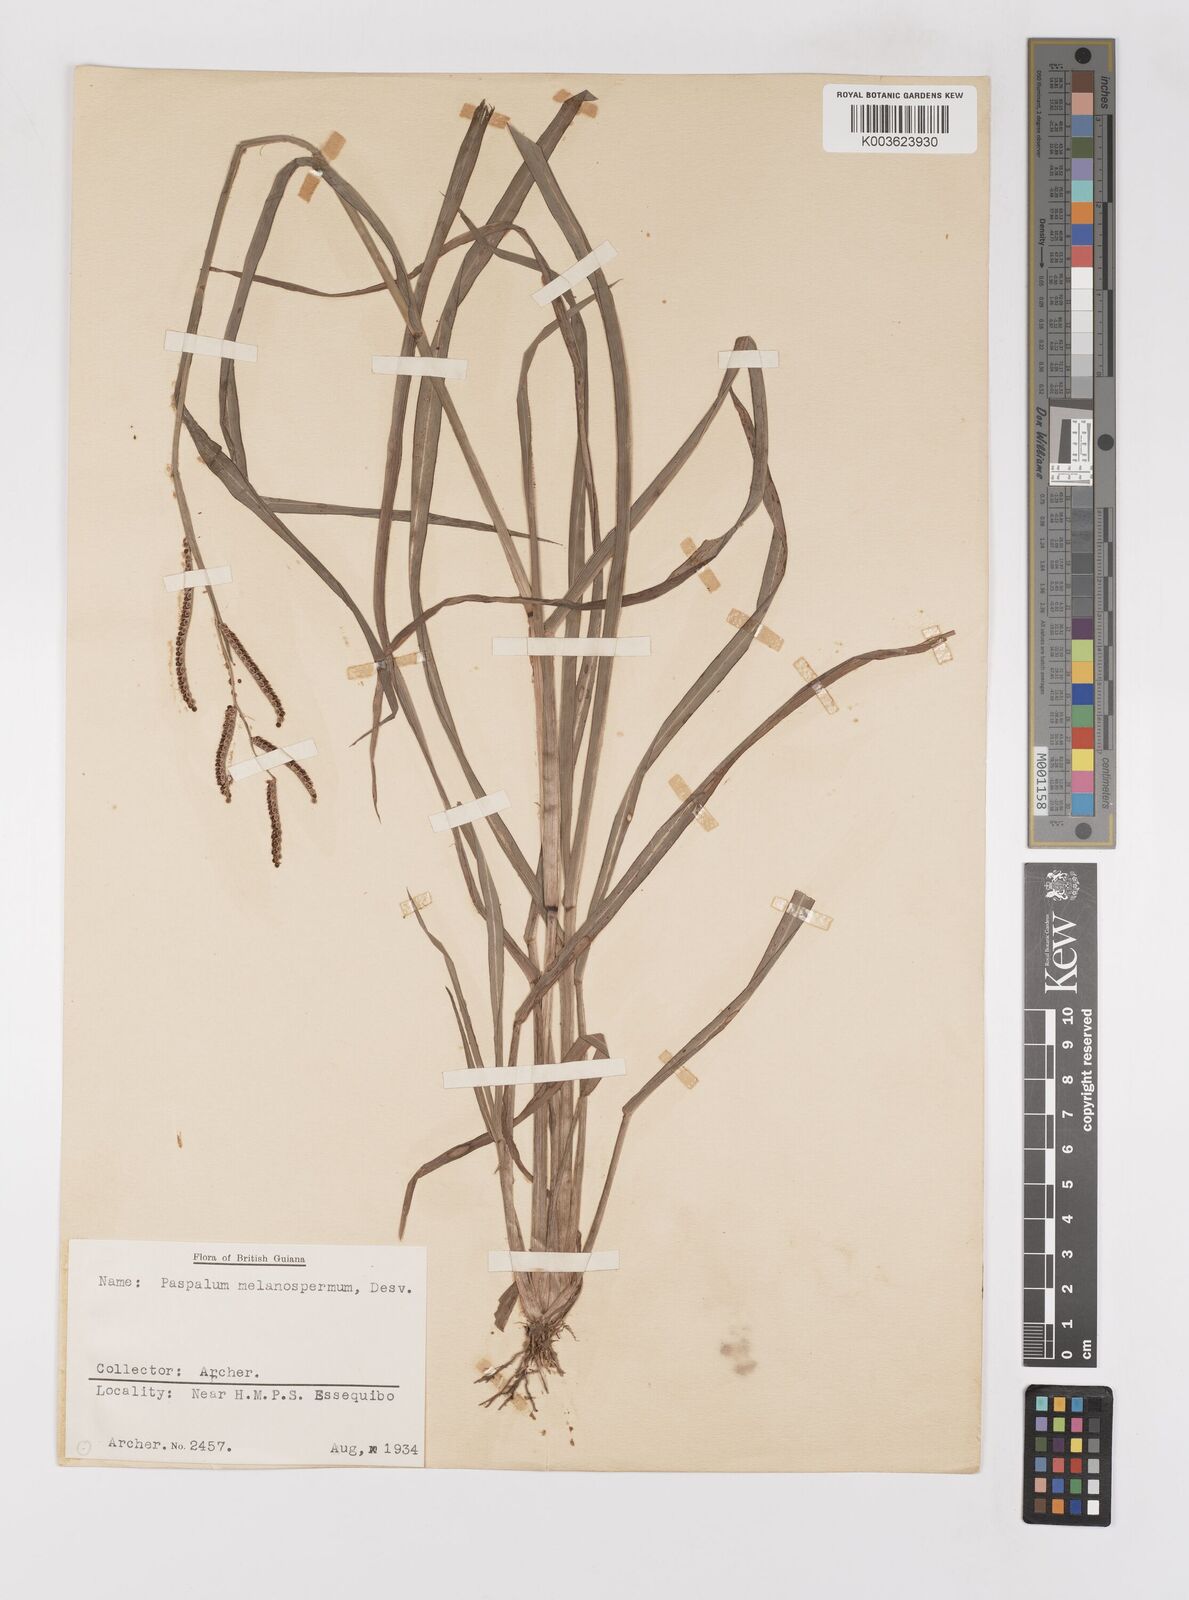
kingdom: Plantae
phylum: Tracheophyta
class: Liliopsida
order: Poales
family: Poaceae
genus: Paspalum
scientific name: Paspalum melanospermum
